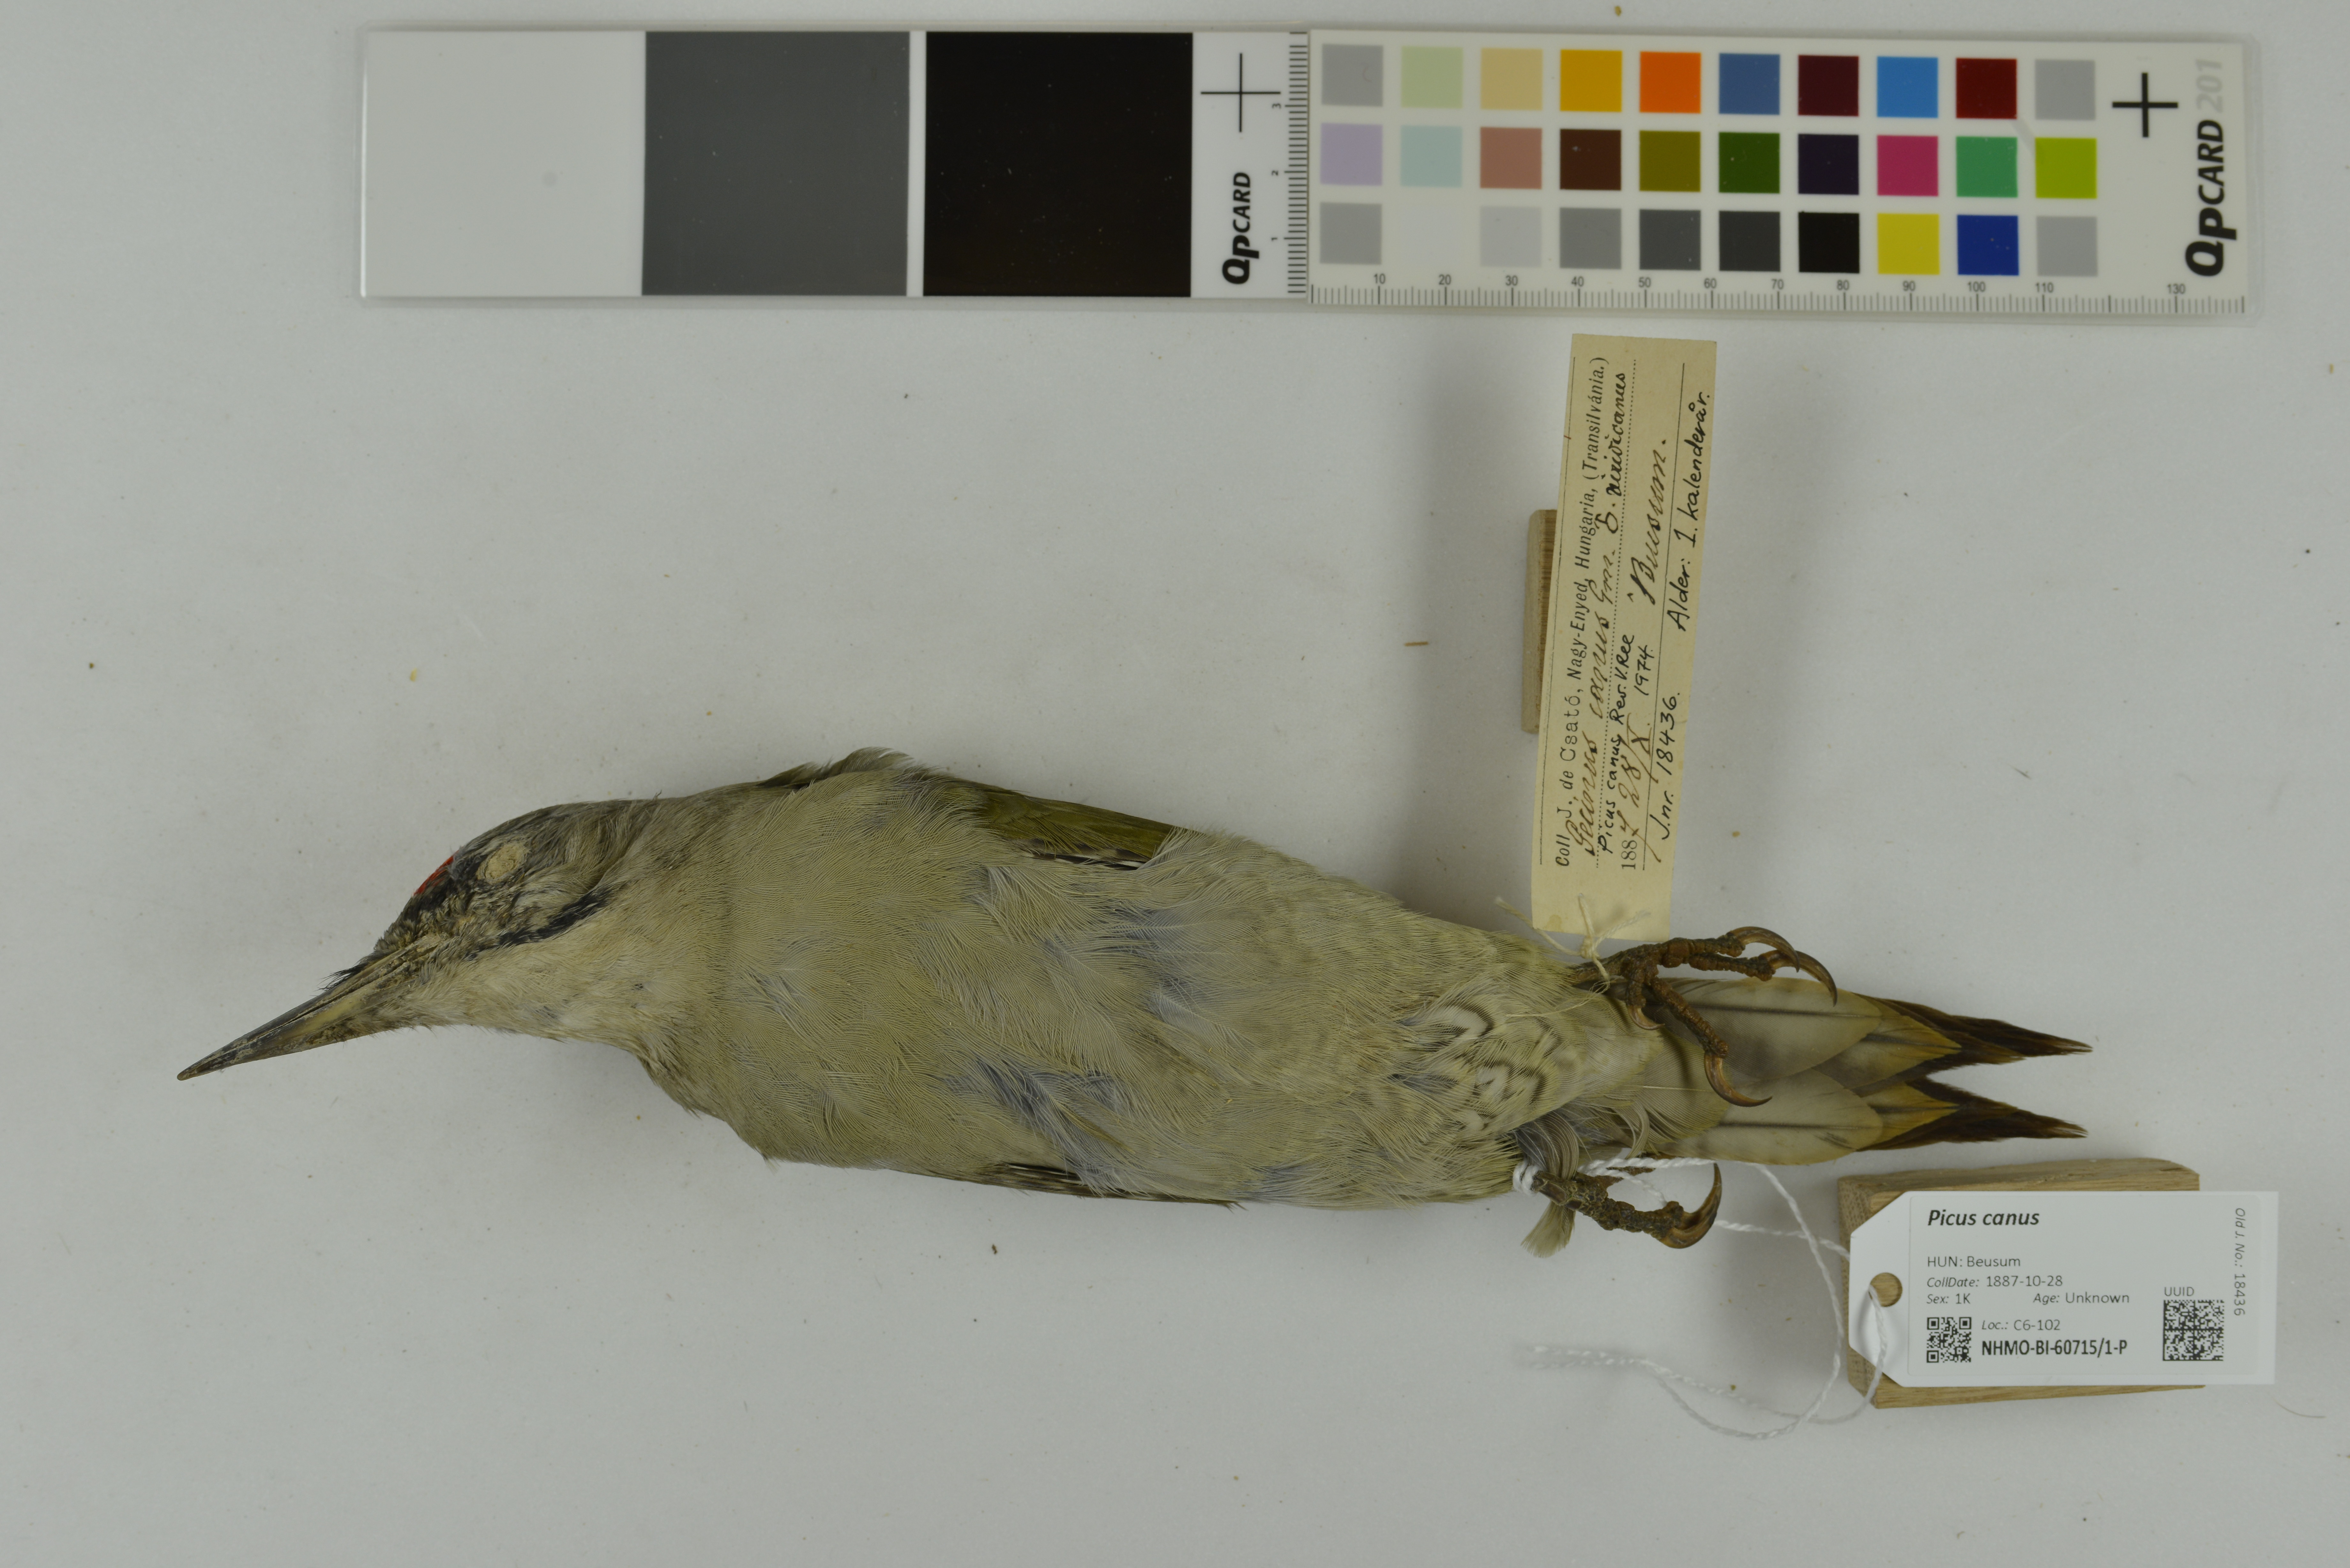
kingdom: Animalia
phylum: Chordata
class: Aves
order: Piciformes
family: Picidae
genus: Picus
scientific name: Picus canus
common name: Grey-headed woodpecker
